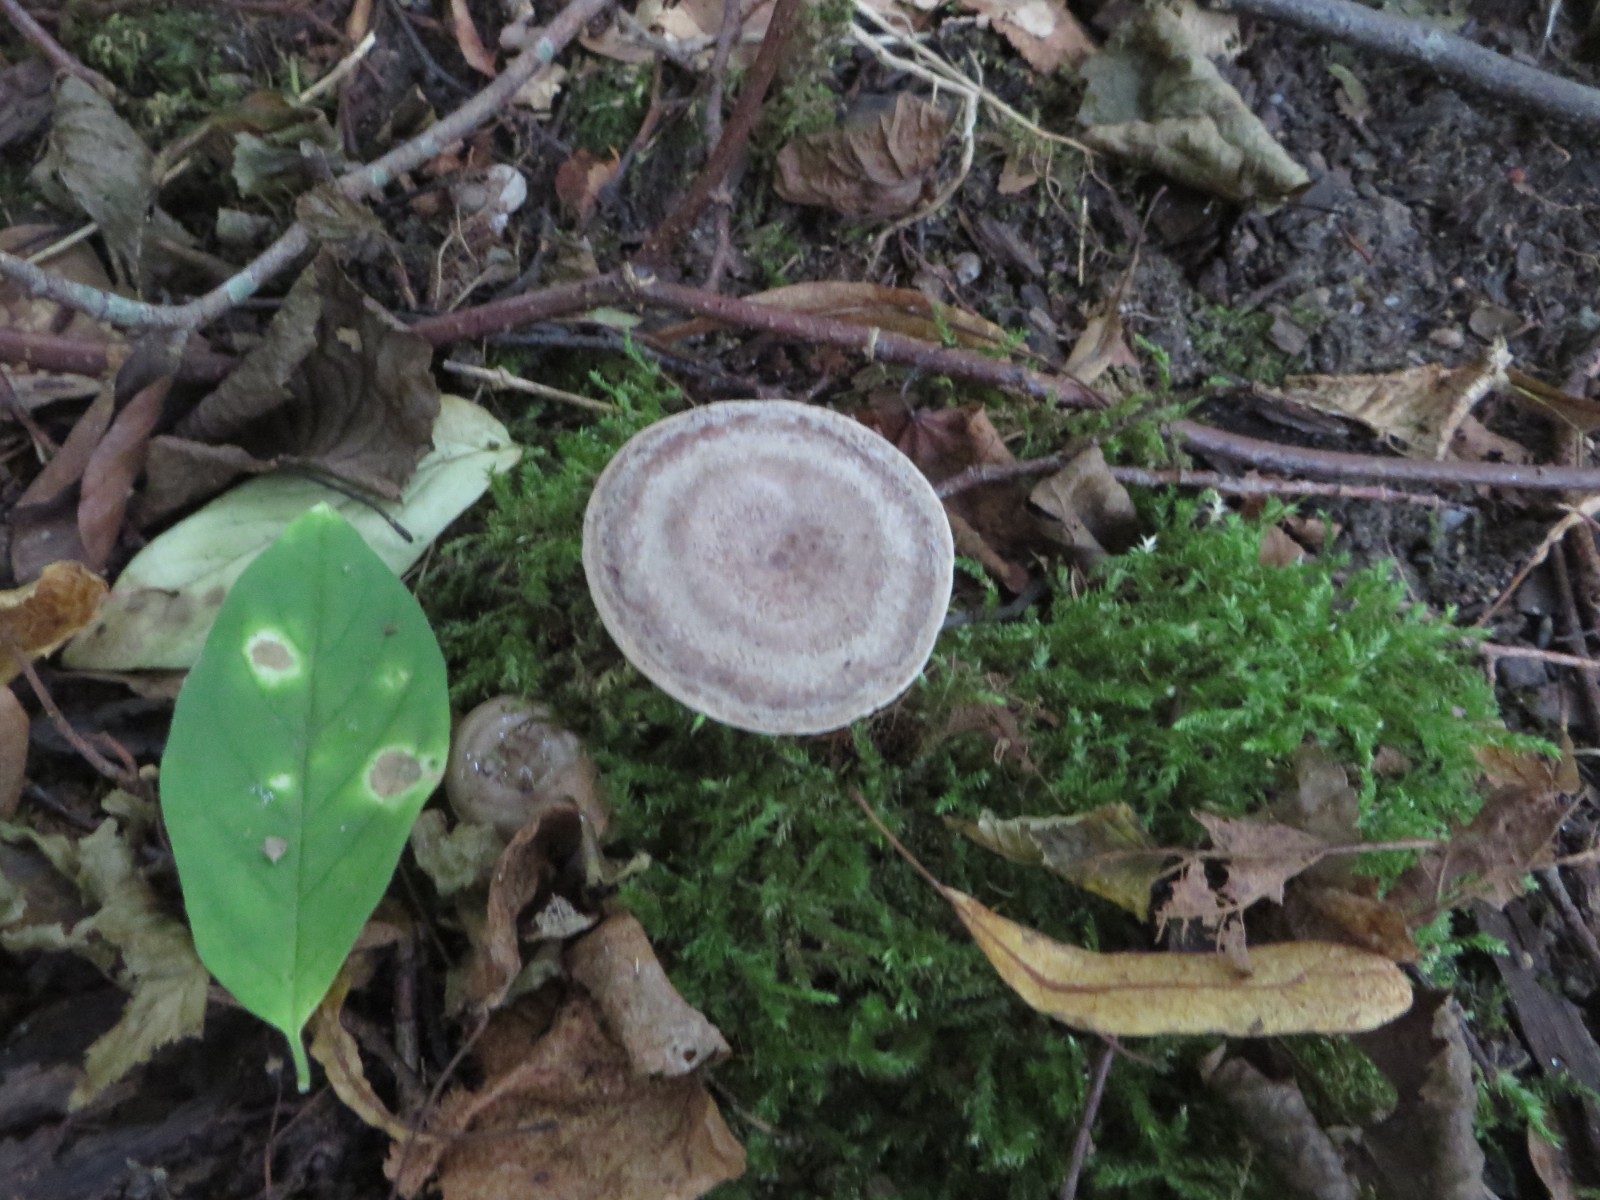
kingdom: Fungi
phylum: Basidiomycota
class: Agaricomycetes
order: Russulales
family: Russulaceae
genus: Lactarius
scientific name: Lactarius circellatus
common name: avnbøg-mælkehat
